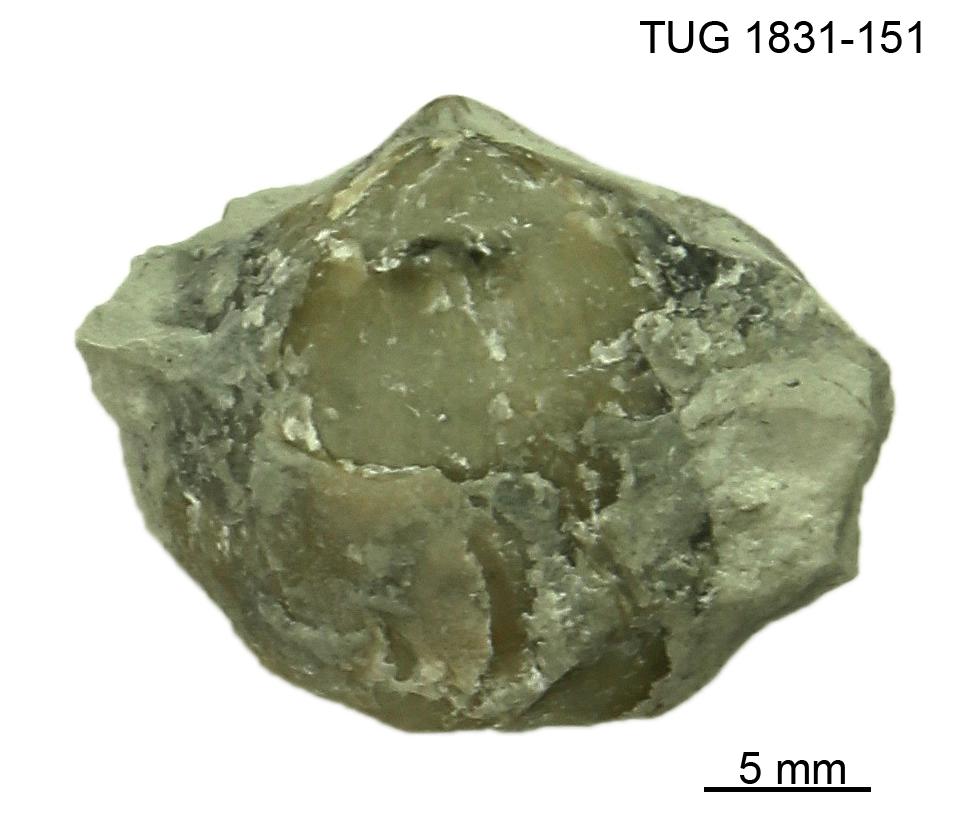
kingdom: Animalia
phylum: Brachiopoda
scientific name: Brachiopoda
